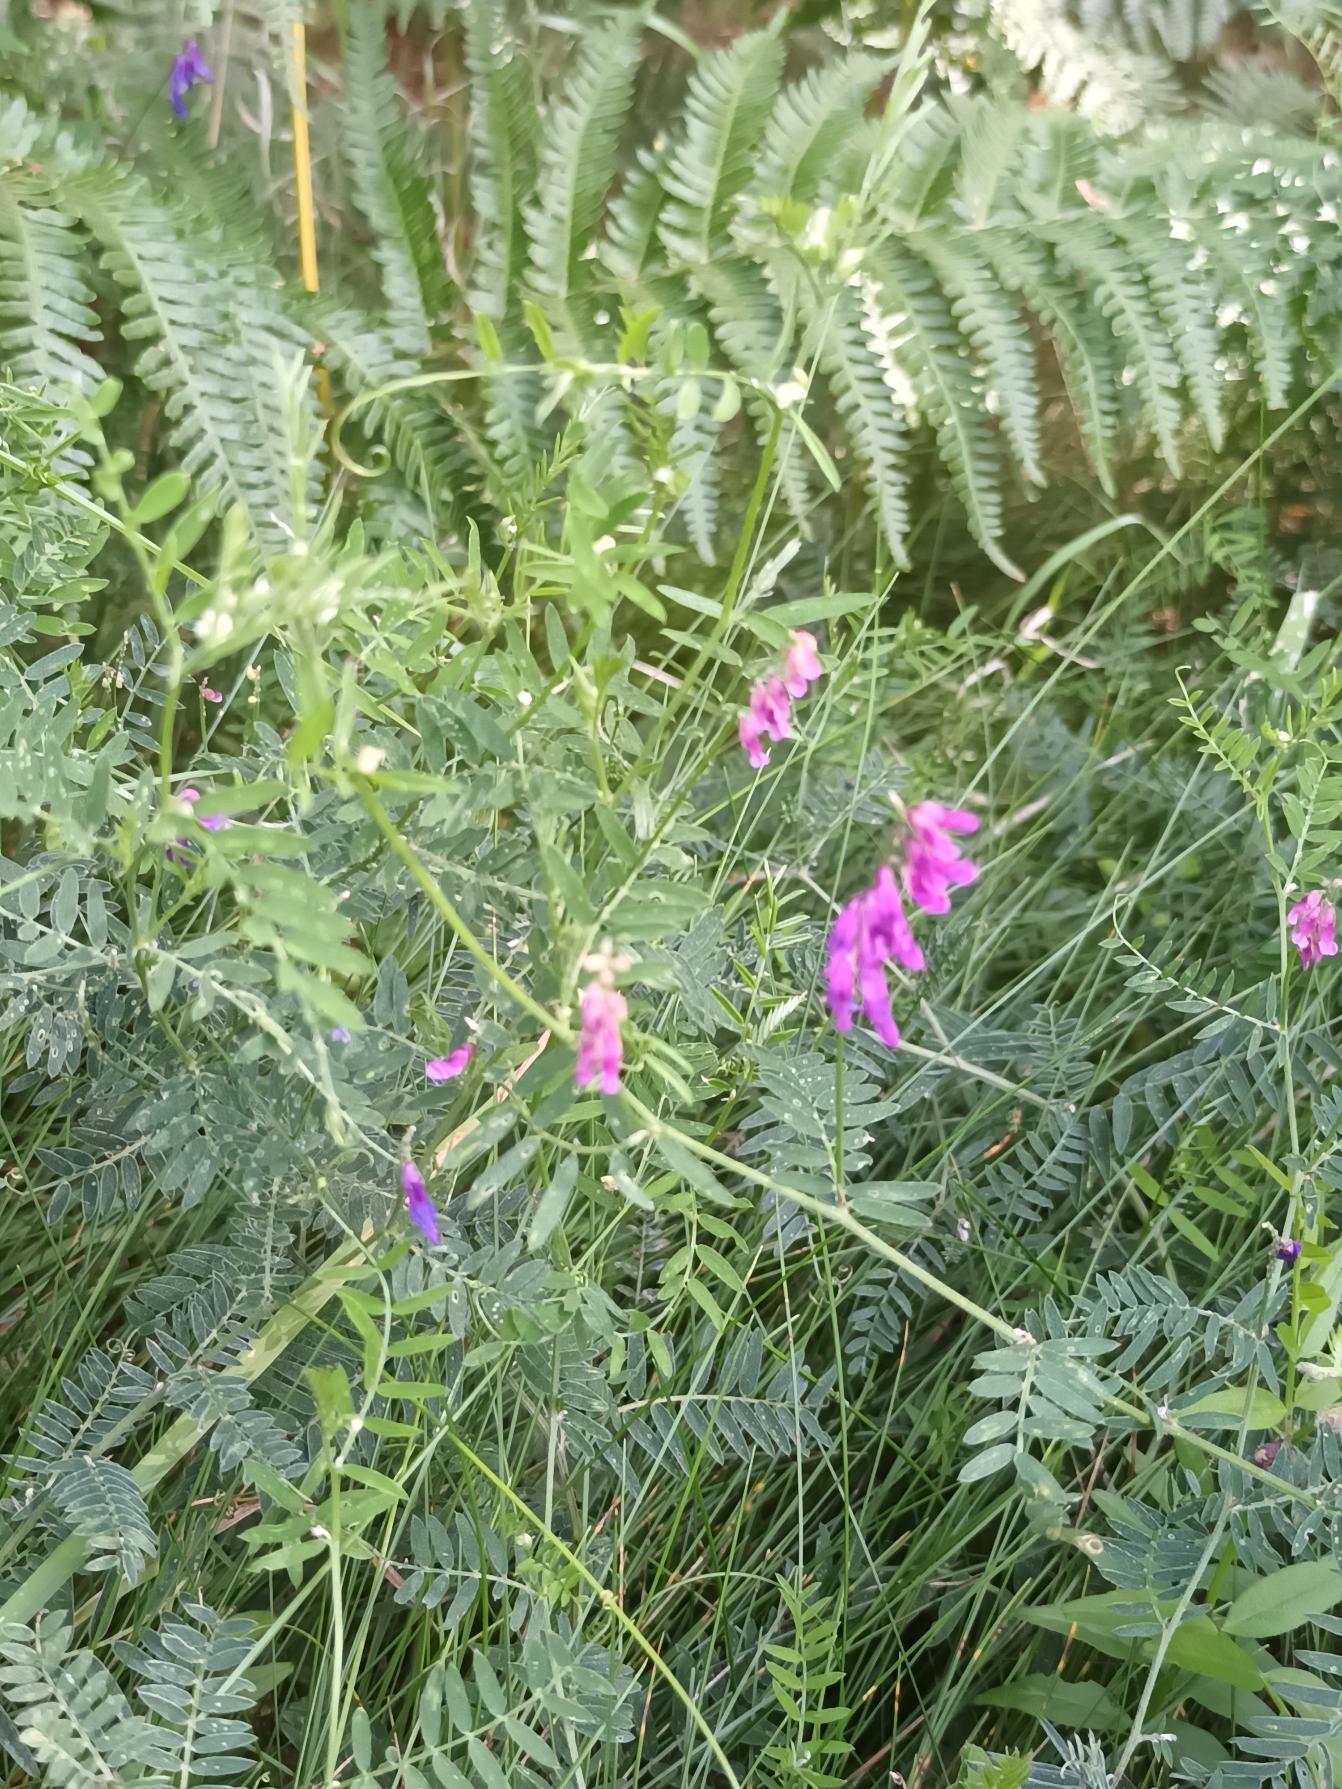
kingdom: Plantae
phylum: Tracheophyta
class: Magnoliopsida
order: Fabales
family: Fabaceae
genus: Vicia
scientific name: Vicia cracca
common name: Muse-vikke
